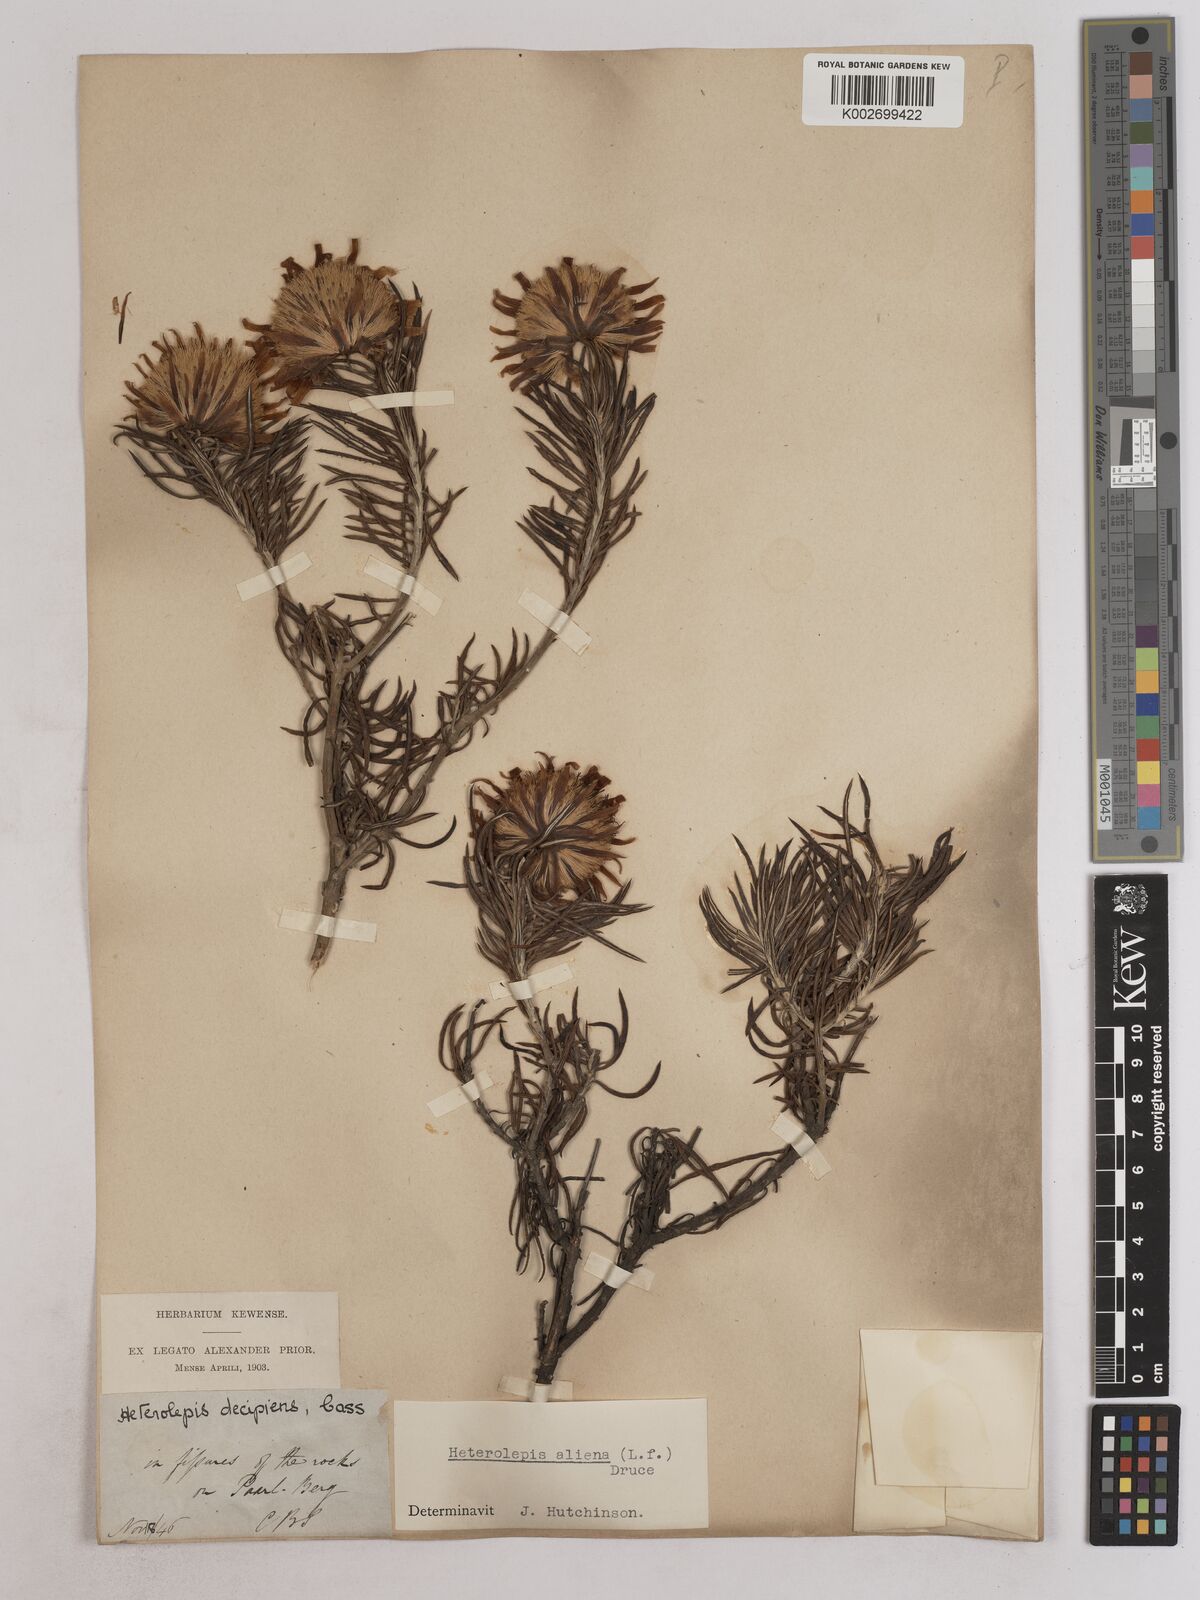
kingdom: Plantae
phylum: Tracheophyta
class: Magnoliopsida
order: Asterales
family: Asteraceae
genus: Heterolepis
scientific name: Heterolepis aliena
